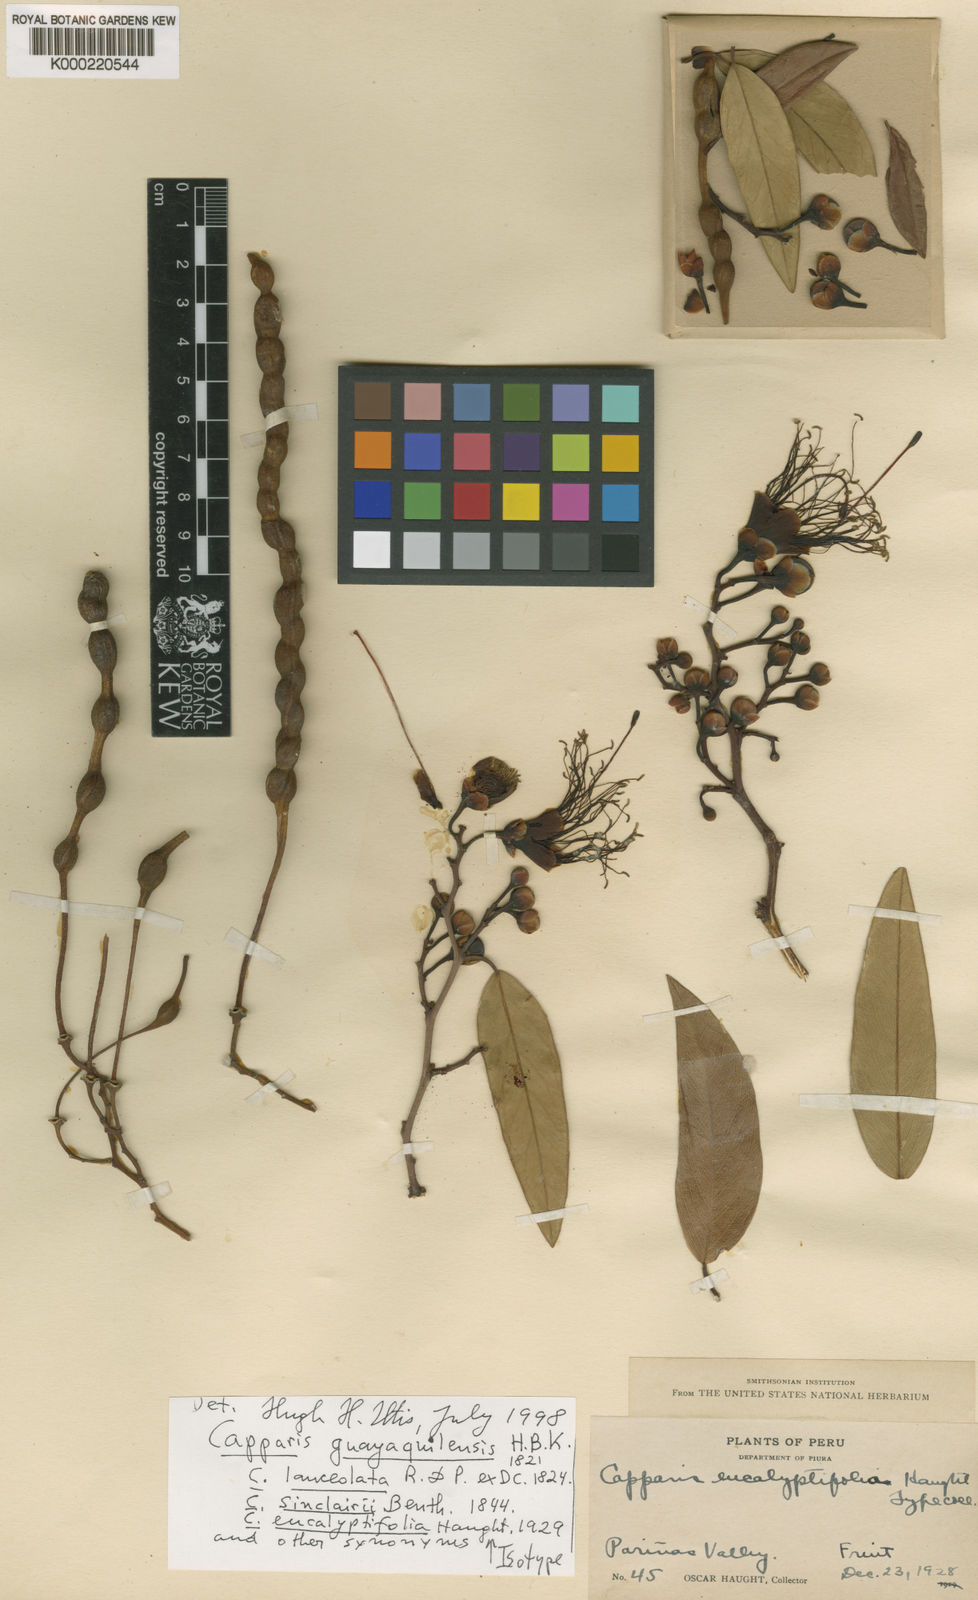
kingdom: Plantae
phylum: Tracheophyta
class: Magnoliopsida
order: Brassicales
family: Capparaceae
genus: Cynophalla
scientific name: Cynophalla guayaquilensis
